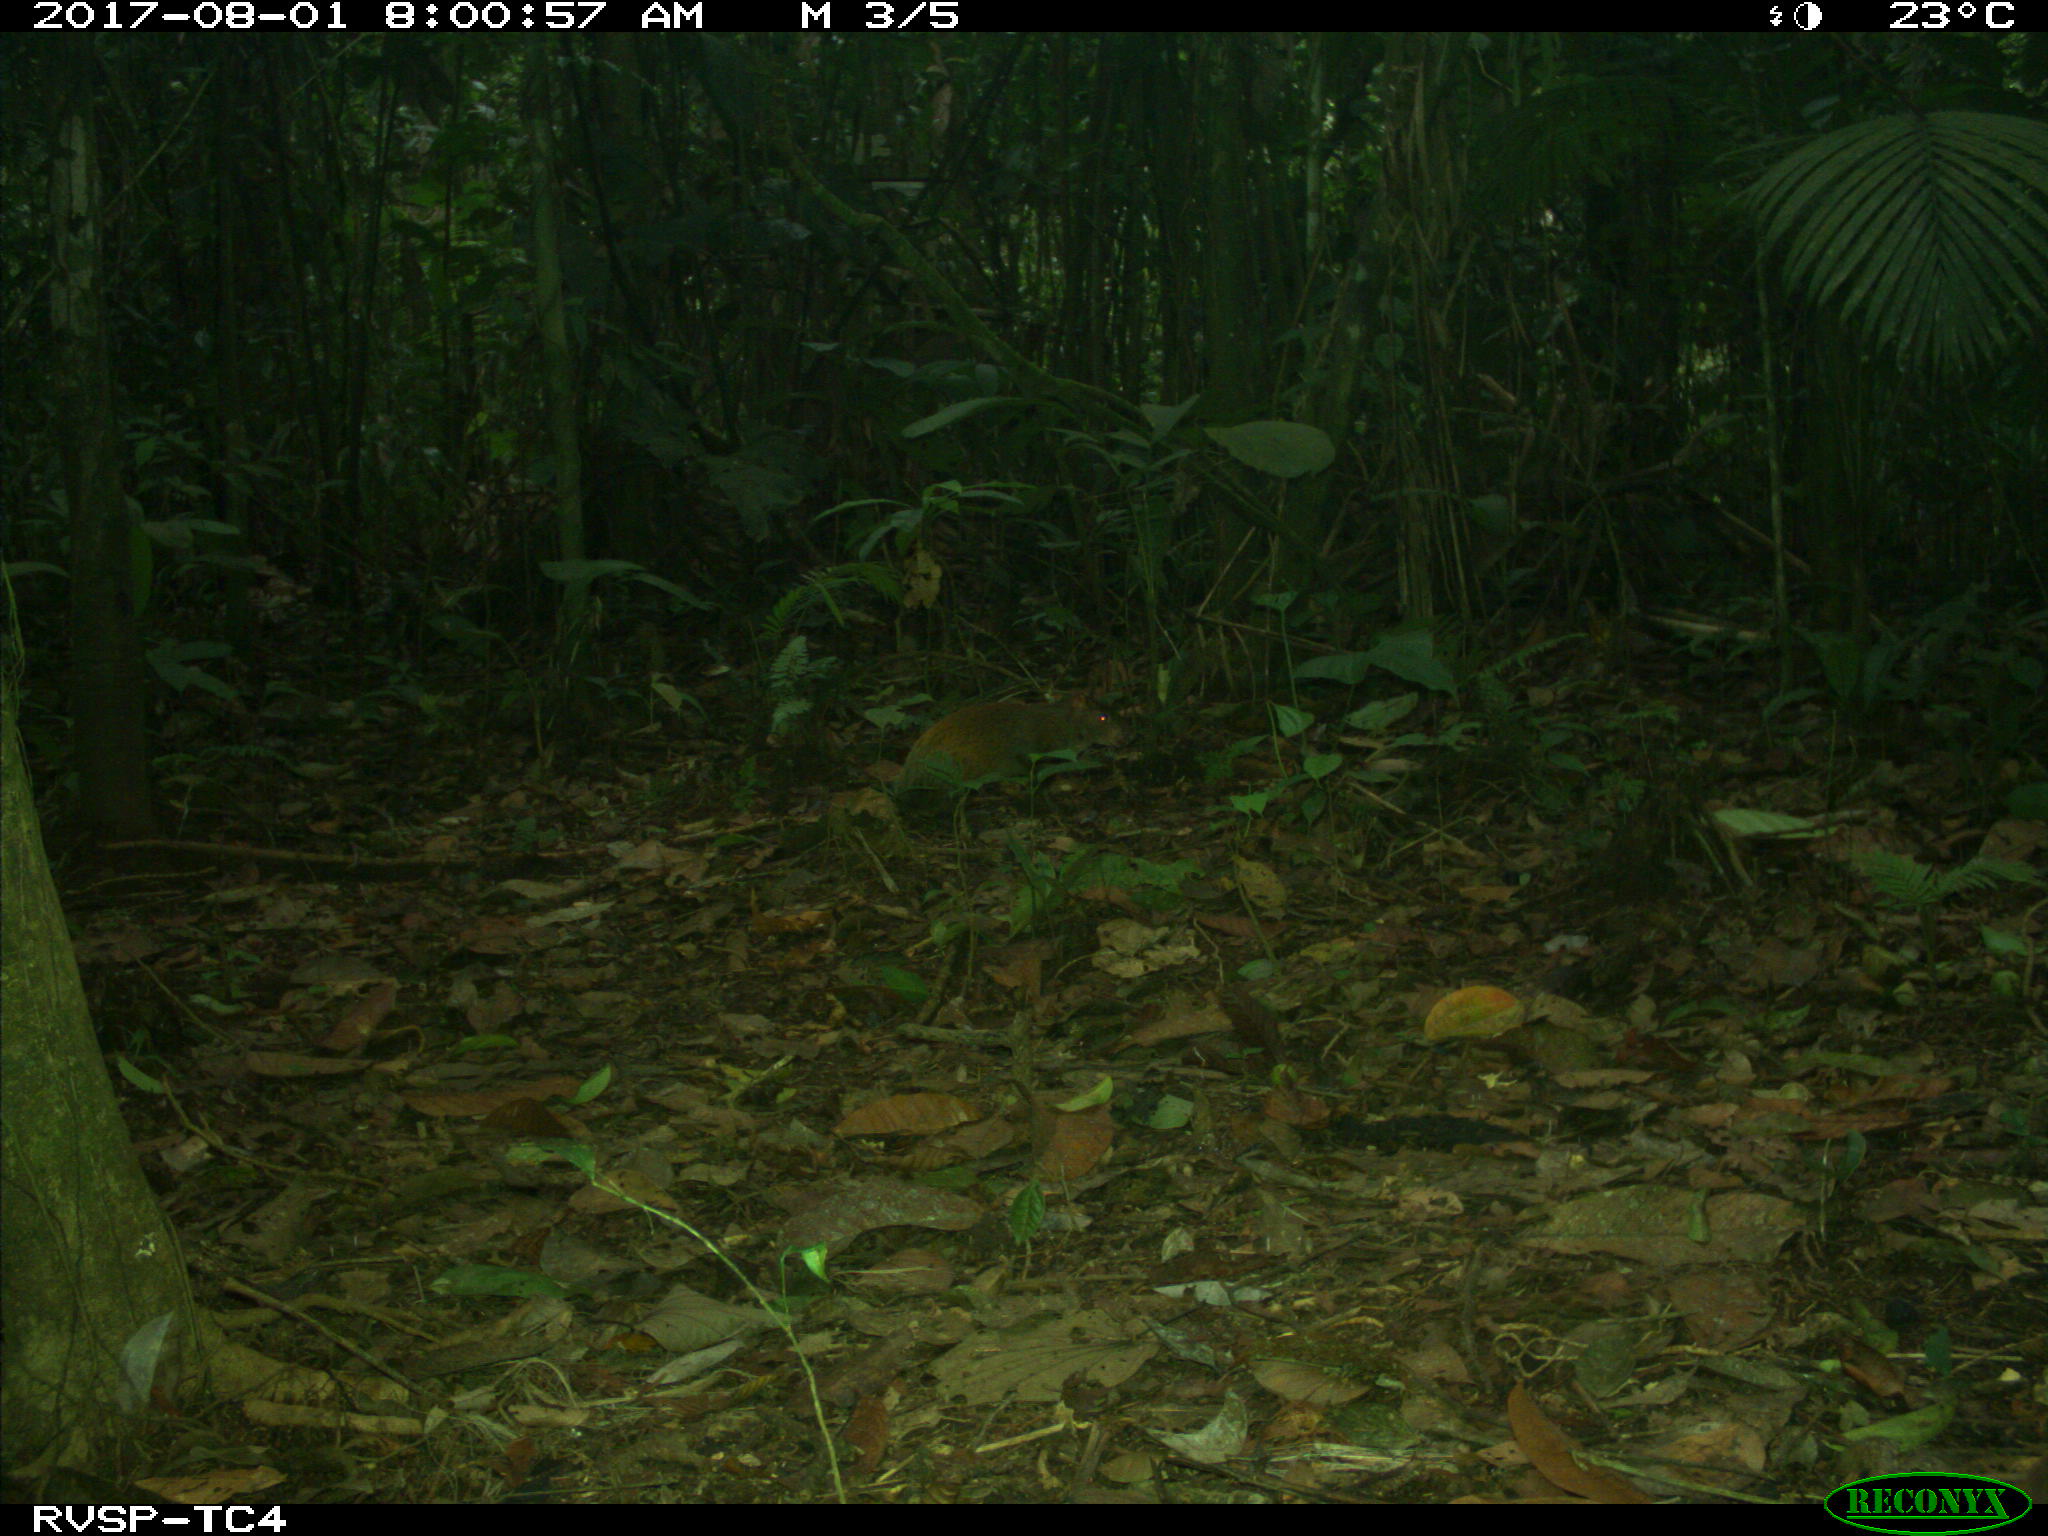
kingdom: Animalia
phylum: Chordata
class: Mammalia
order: Rodentia
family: Dasyproctidae
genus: Dasyprocta
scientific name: Dasyprocta punctata
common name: Central american agouti
